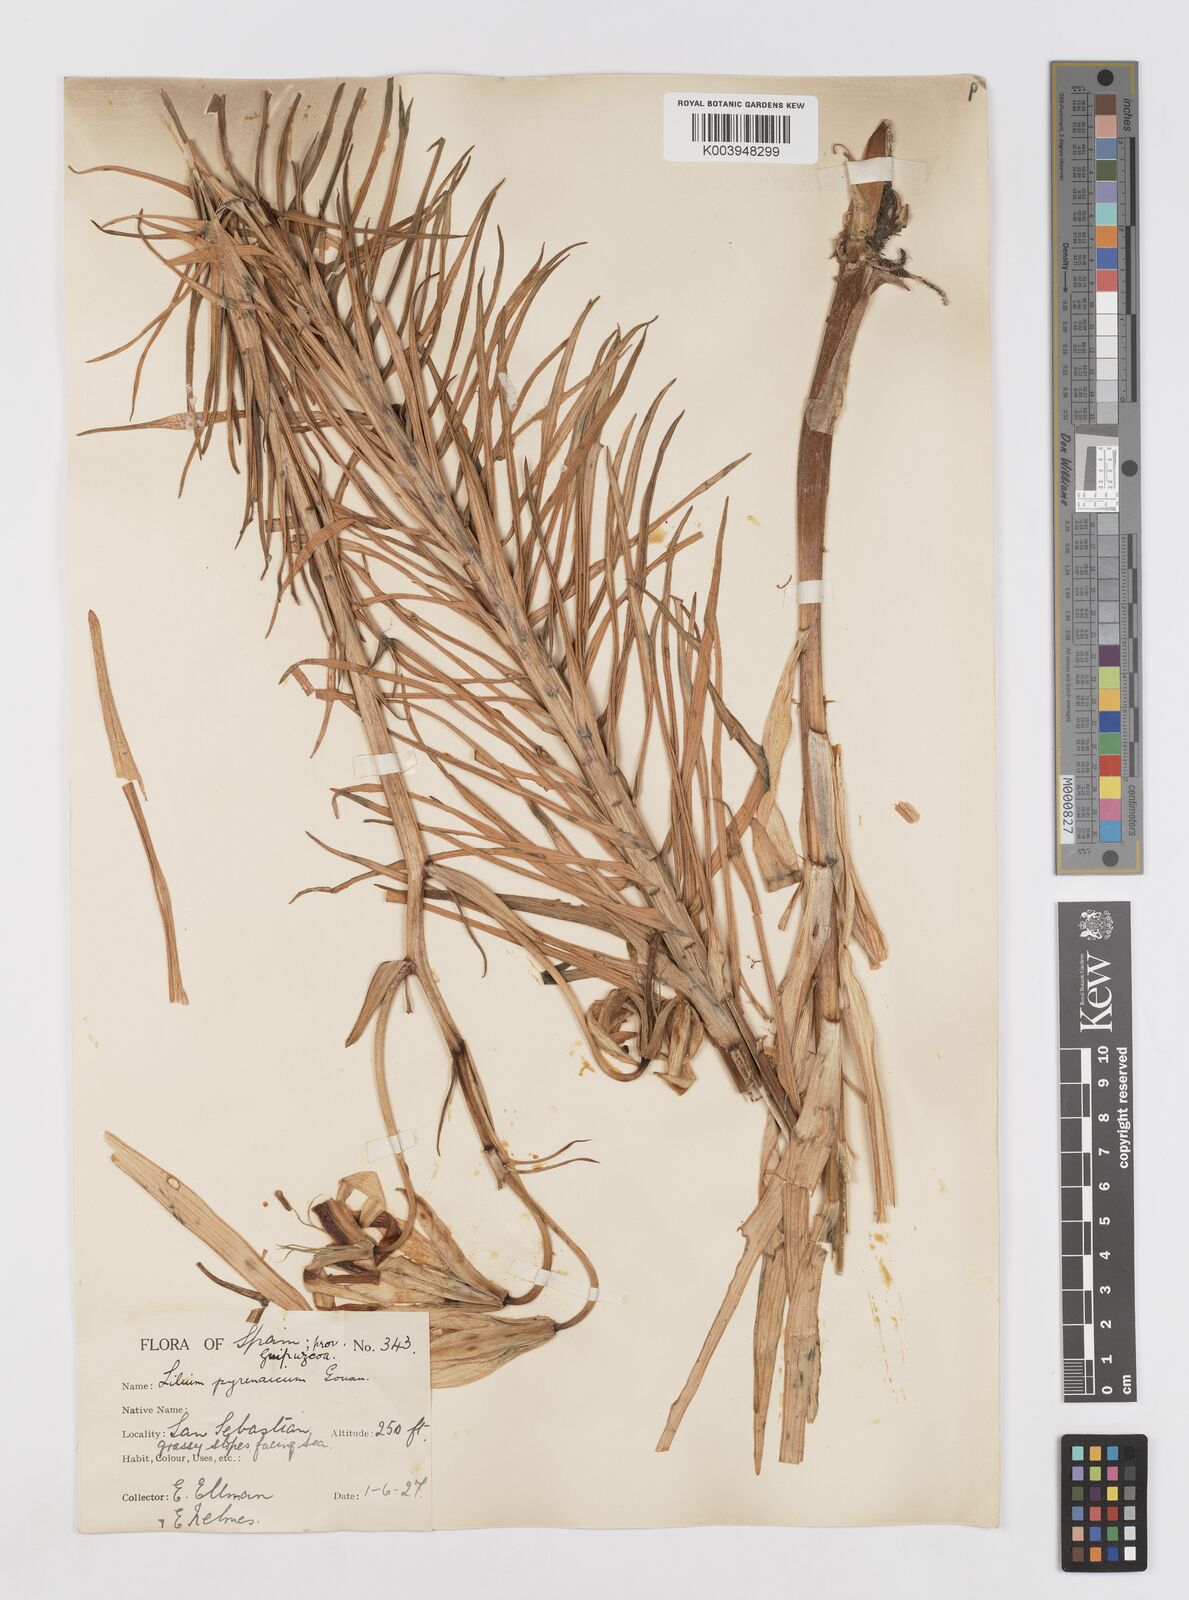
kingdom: Plantae
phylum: Tracheophyta
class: Liliopsida
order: Liliales
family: Liliaceae
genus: Lilium
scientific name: Lilium pyrenaicum
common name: Pyrenean lily
